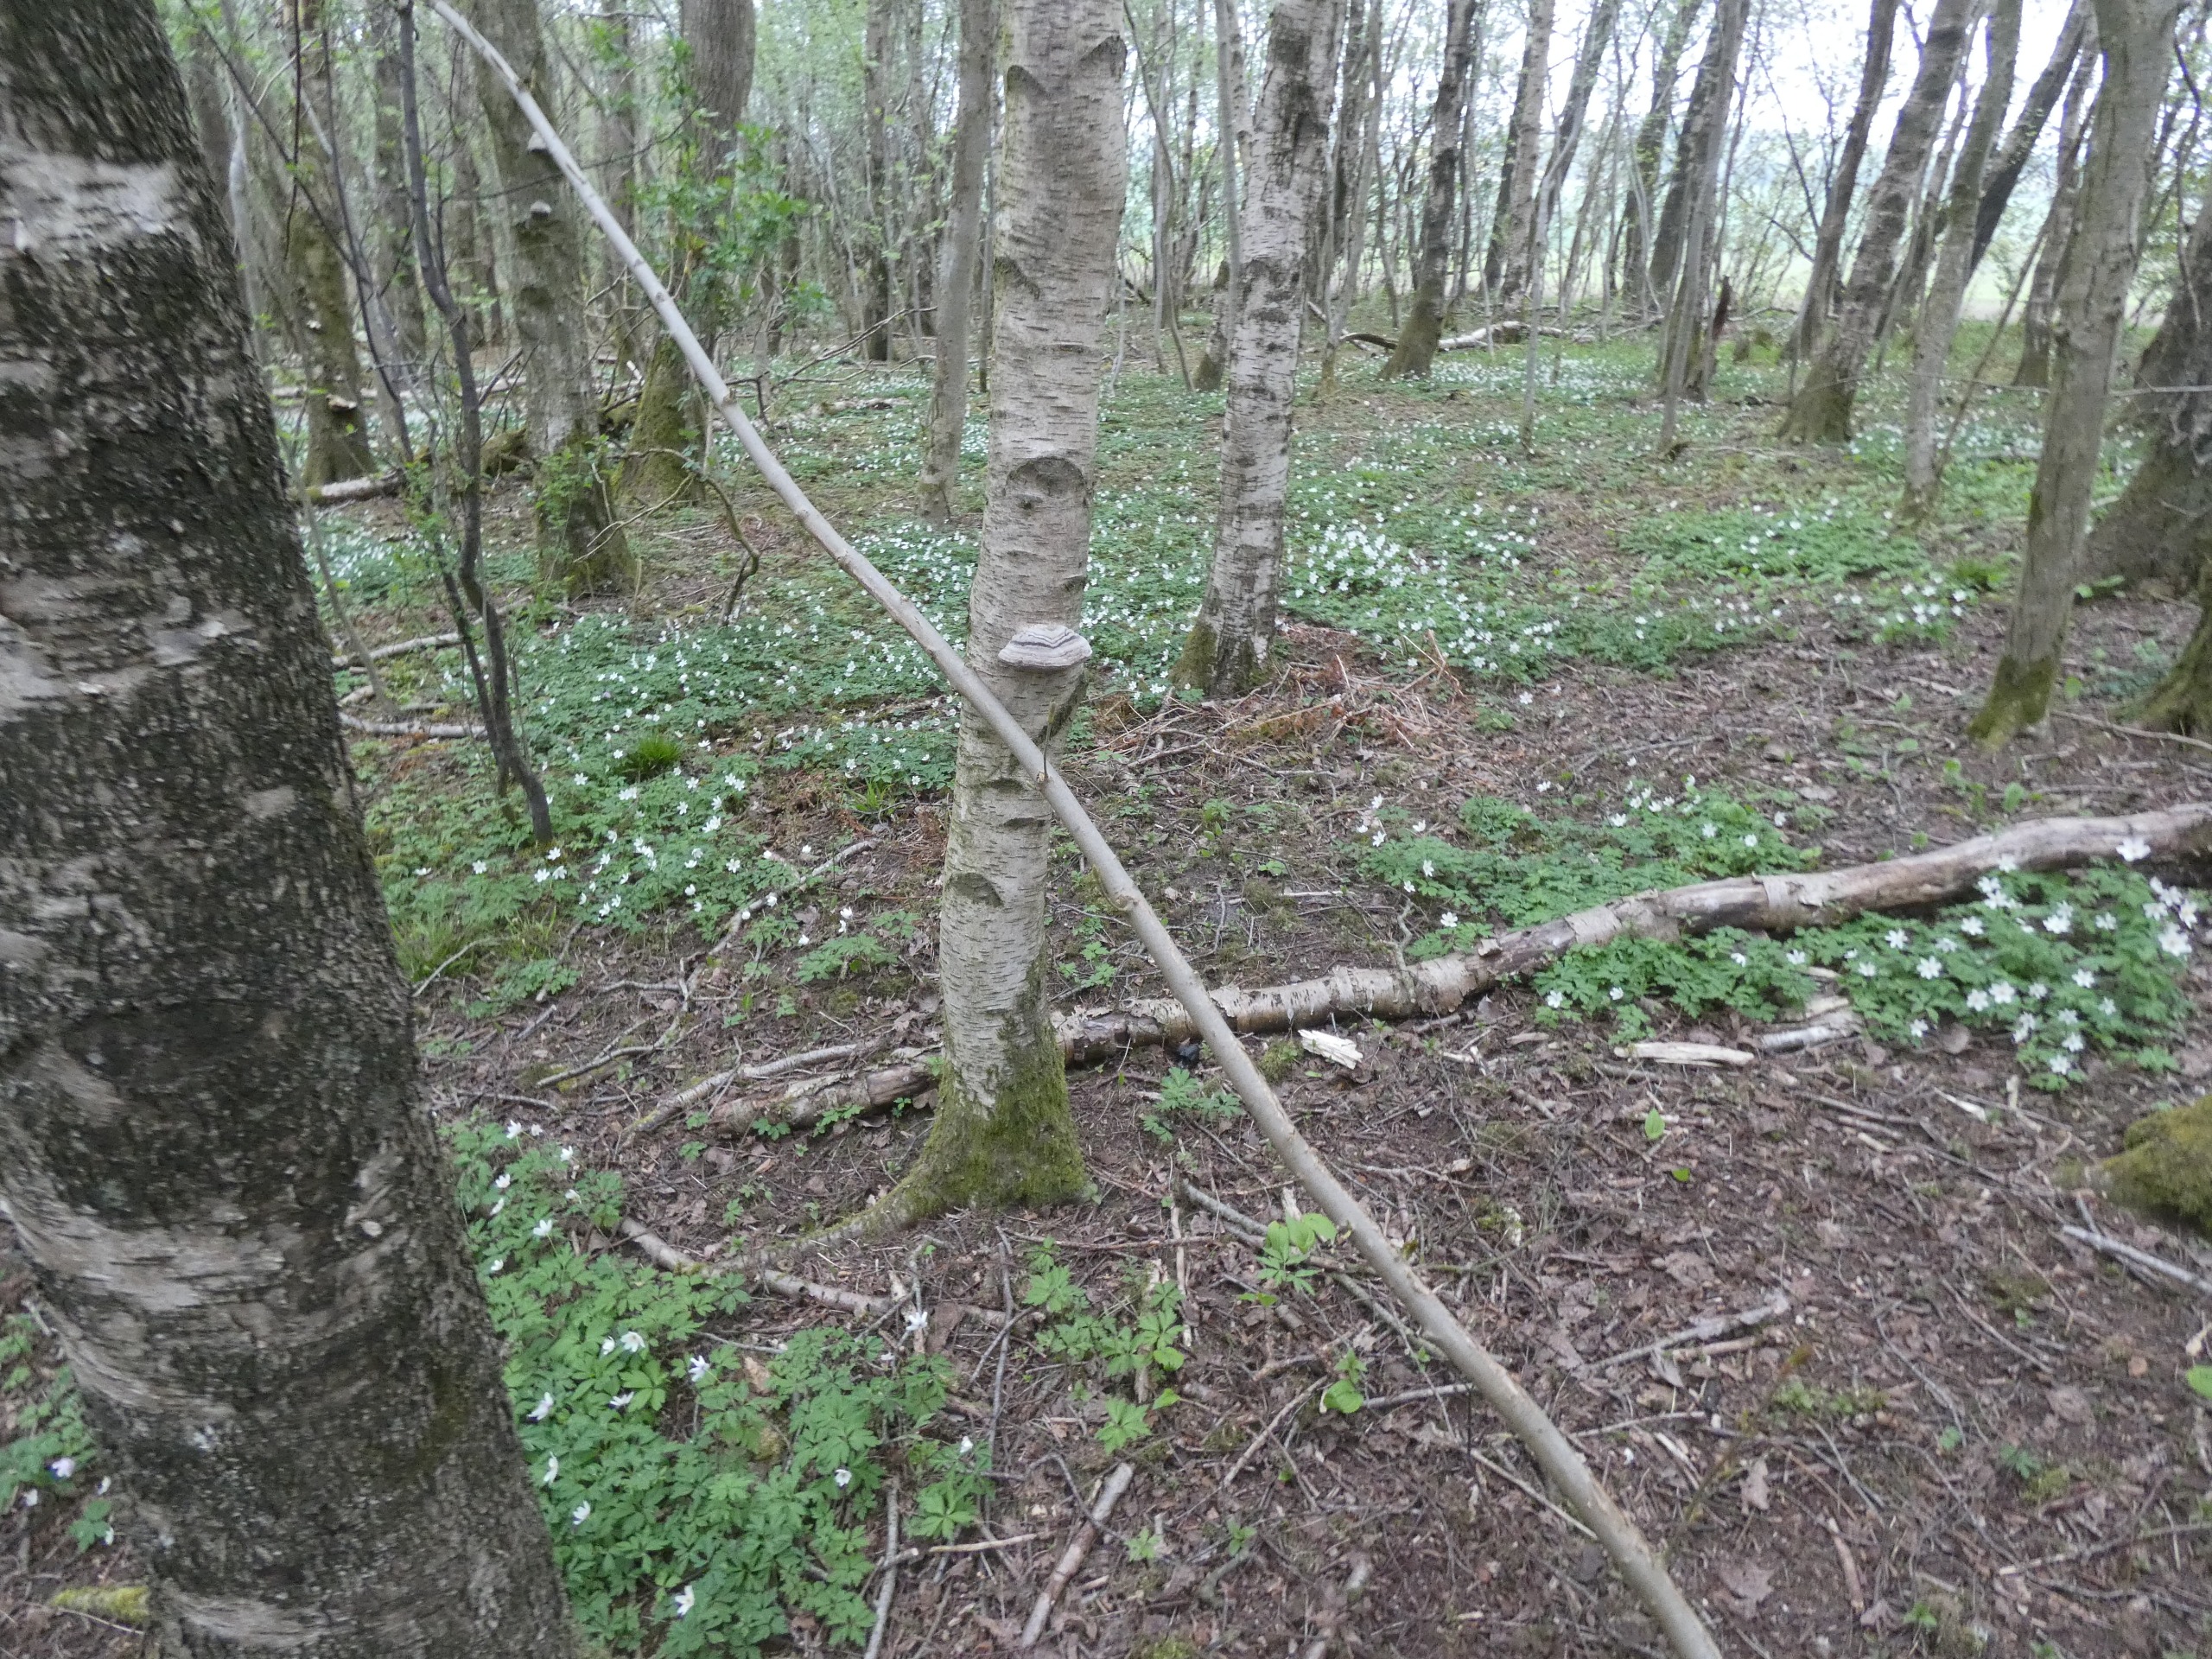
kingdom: Fungi
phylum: Basidiomycota
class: Agaricomycetes
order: Polyporales
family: Polyporaceae
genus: Fomes
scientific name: Fomes fomentarius
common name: Tøndersvamp
